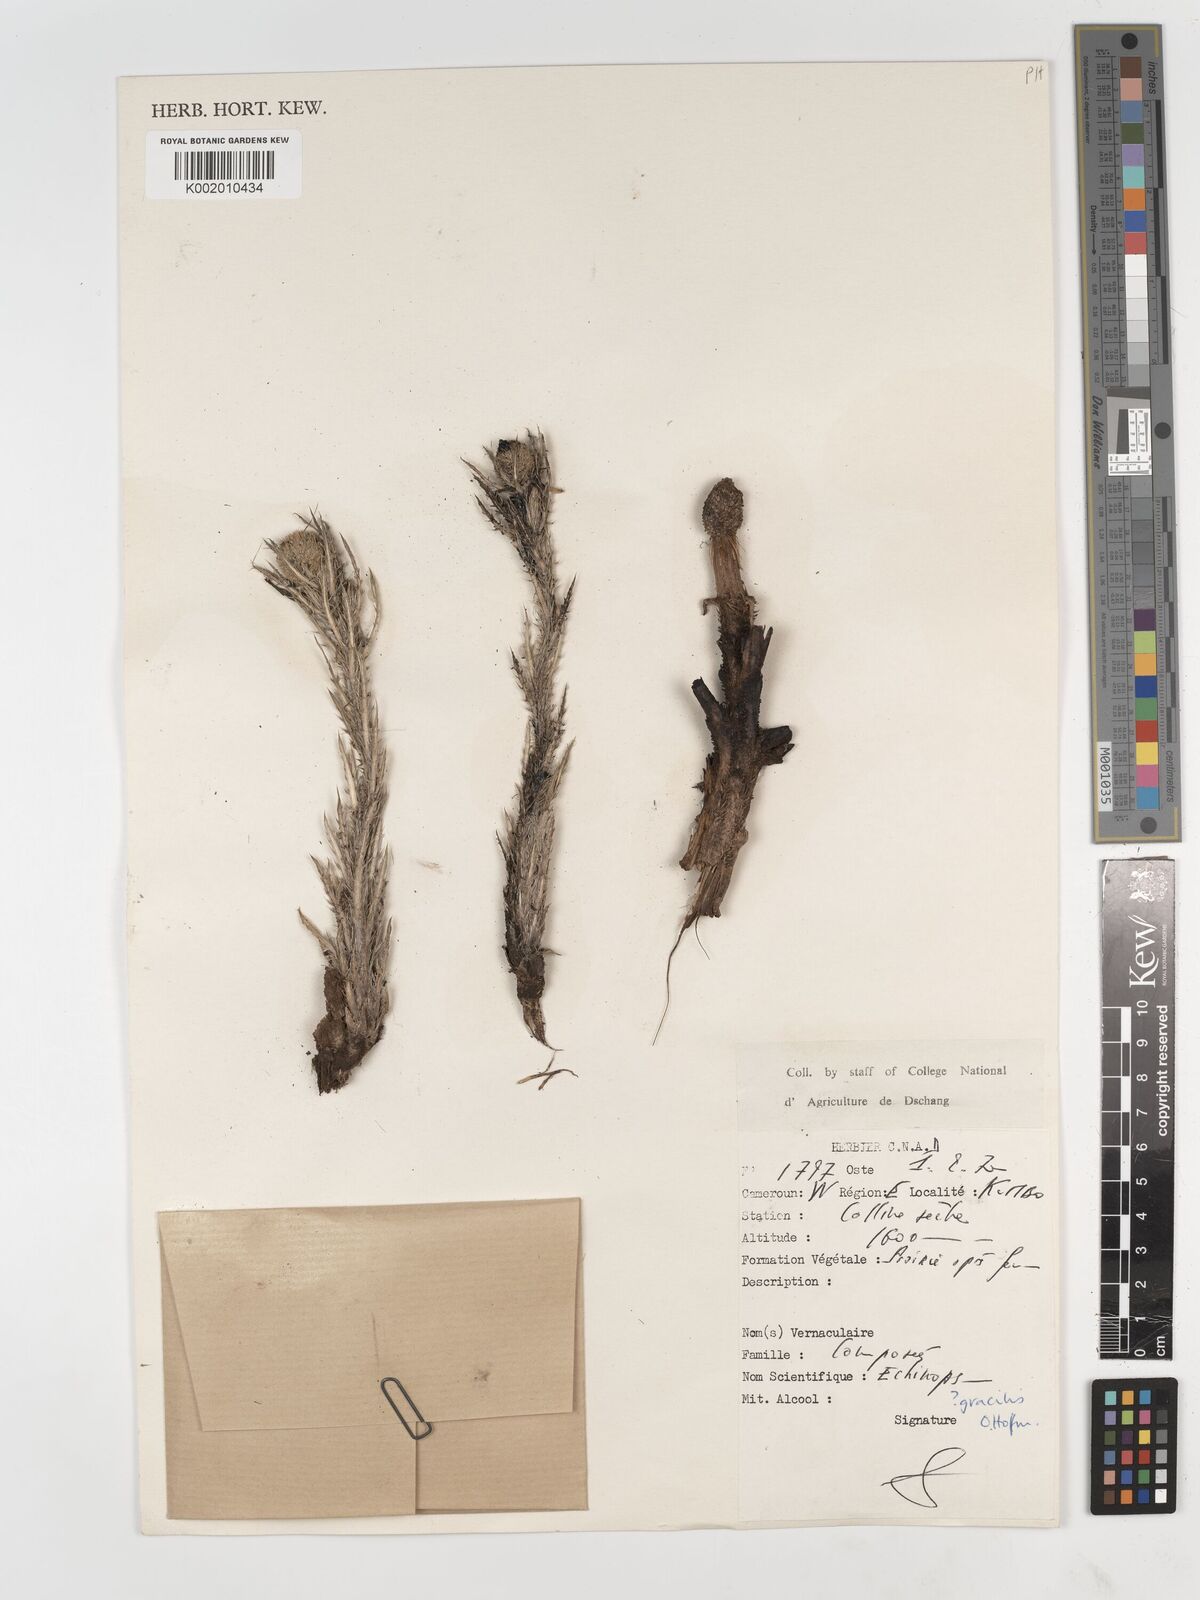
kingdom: Plantae
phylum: Tracheophyta
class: Magnoliopsida
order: Asterales
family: Asteraceae
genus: Echinops
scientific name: Echinops gracilis
